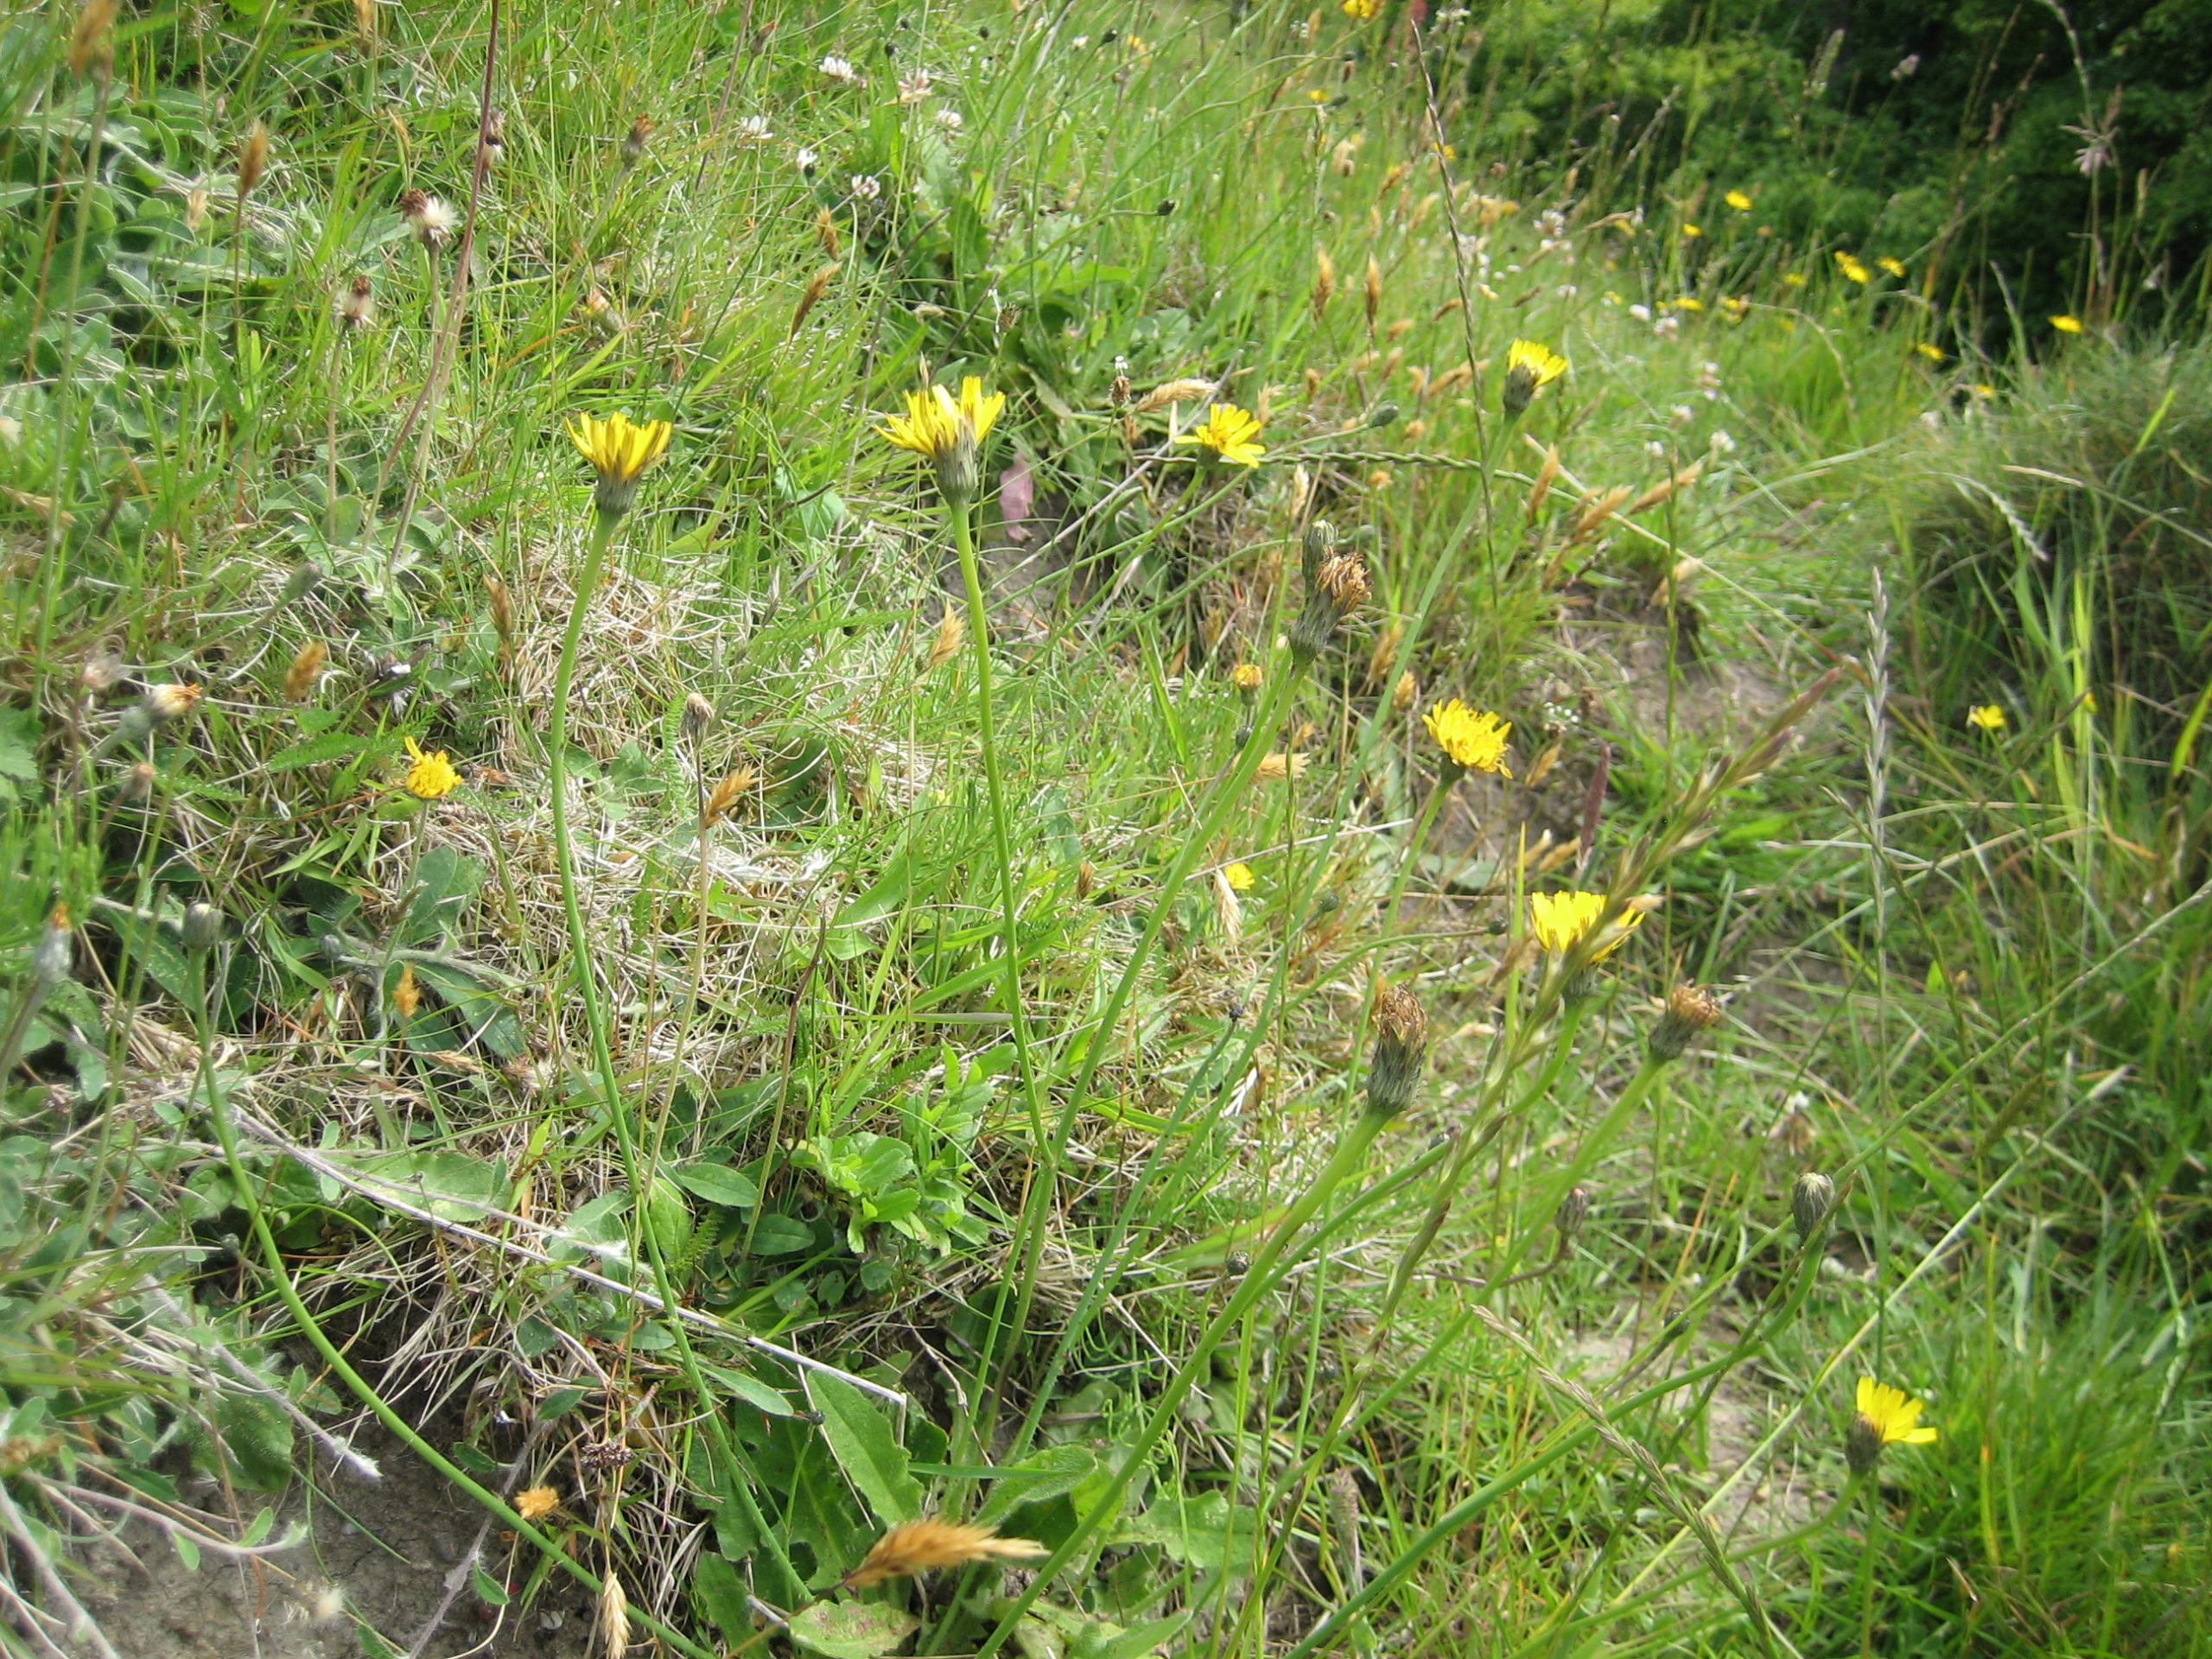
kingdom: Plantae
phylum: Tracheophyta
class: Magnoliopsida
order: Asterales
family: Asteraceae
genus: Hypochaeris
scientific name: Hypochaeris radicata
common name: Almindelig kongepen
